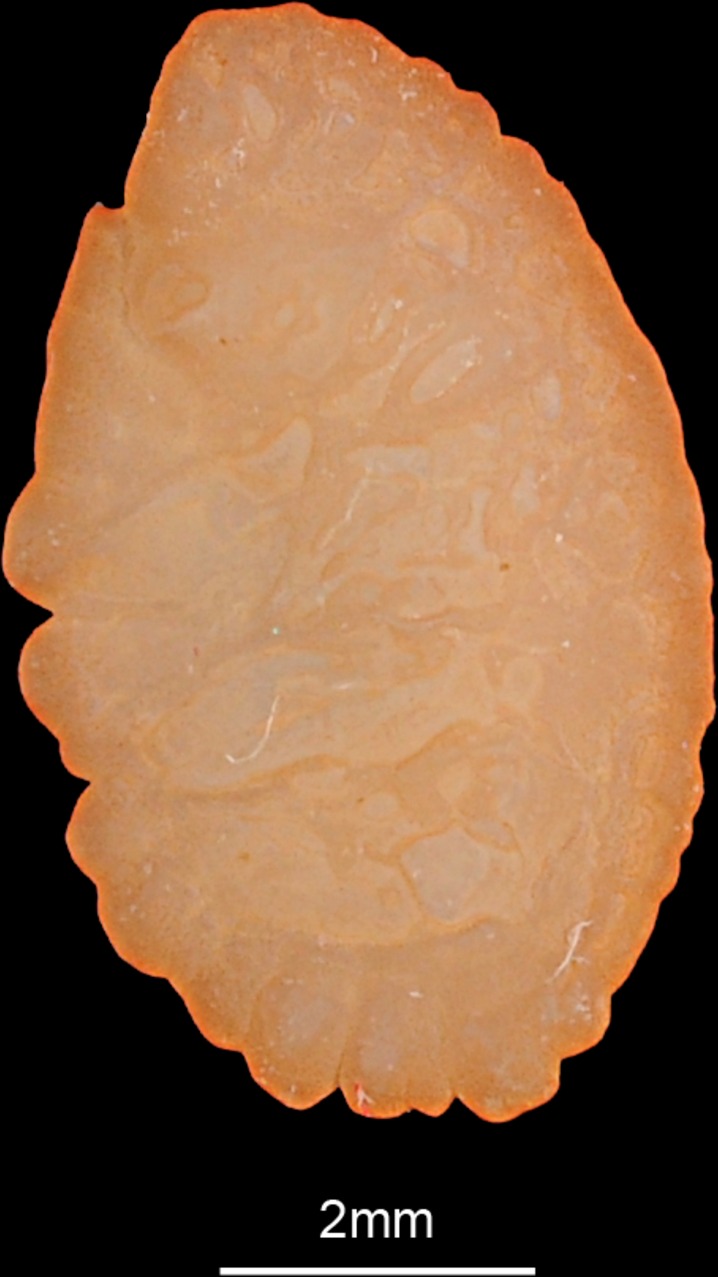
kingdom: Animalia
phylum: Chordata
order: Perciformes
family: Percidae
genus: Gymnocephalus
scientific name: Gymnocephalus schraetser
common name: Schraetzer
